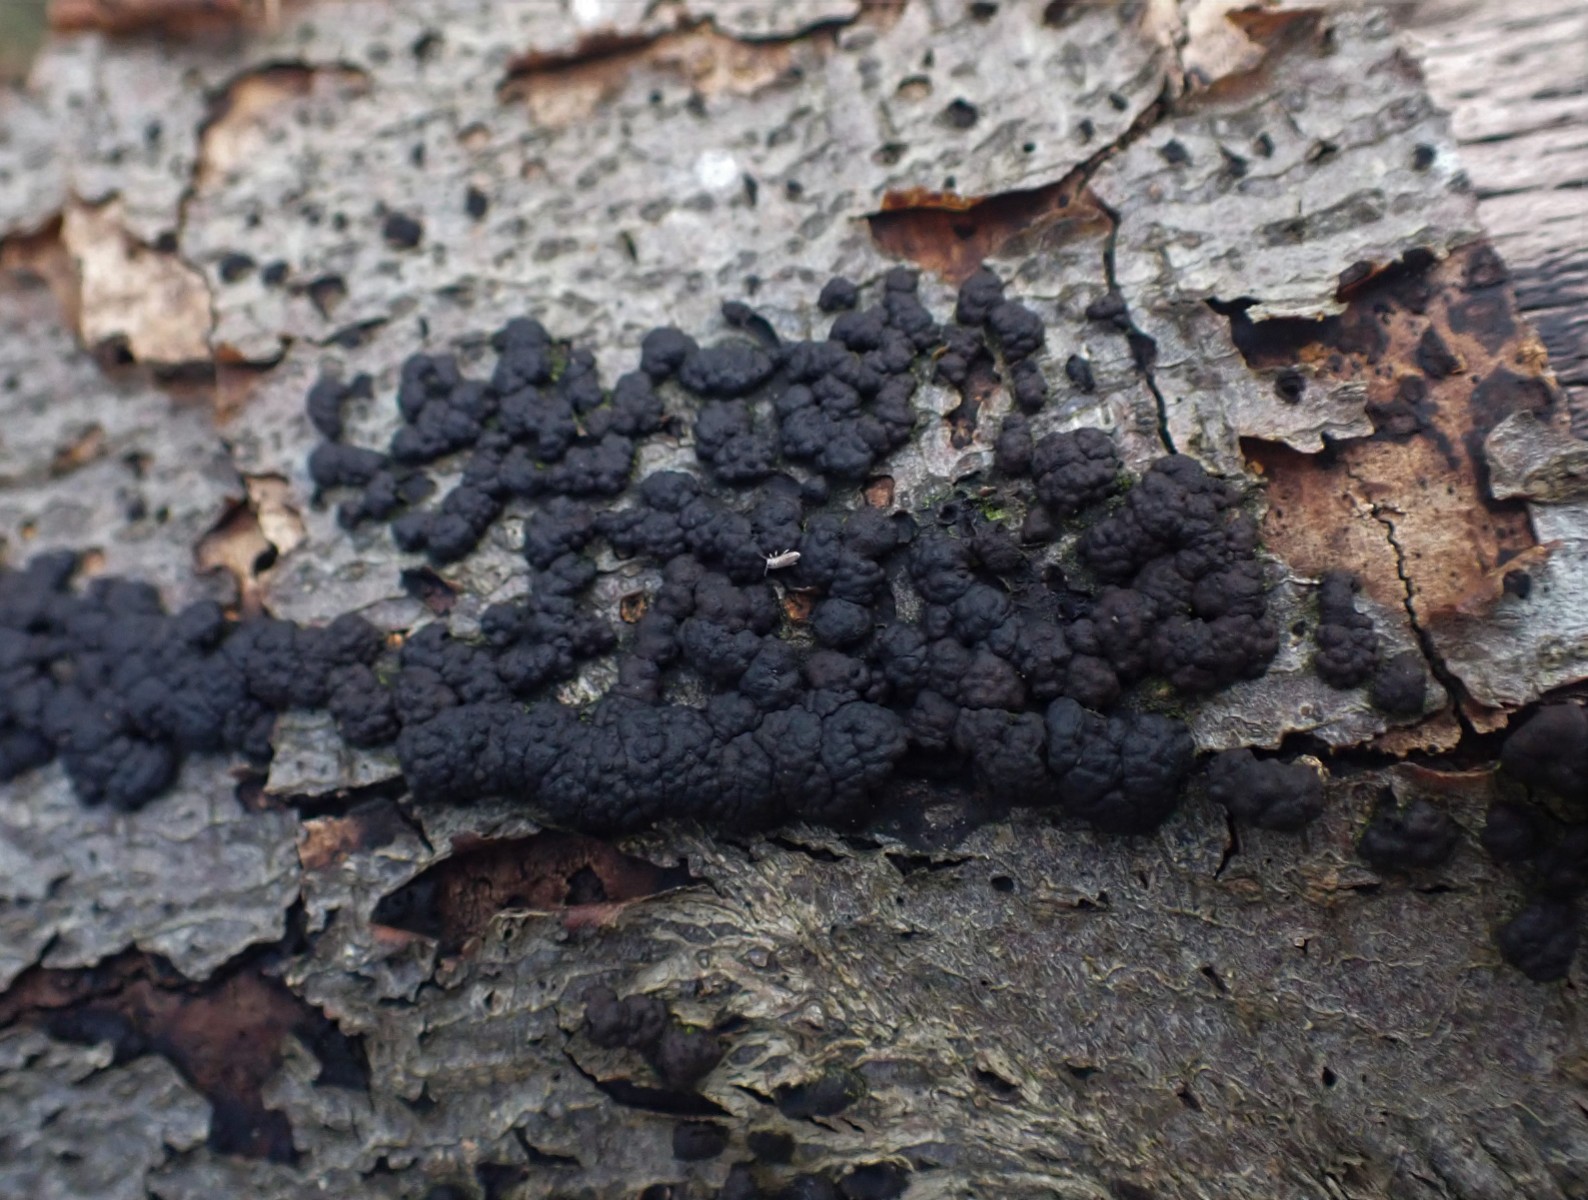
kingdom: Fungi
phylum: Ascomycota
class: Sordariomycetes
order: Xylariales
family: Hypoxylaceae
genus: Jackrogersella
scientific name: Jackrogersella cohaerens
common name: sammenflydende kulbær
